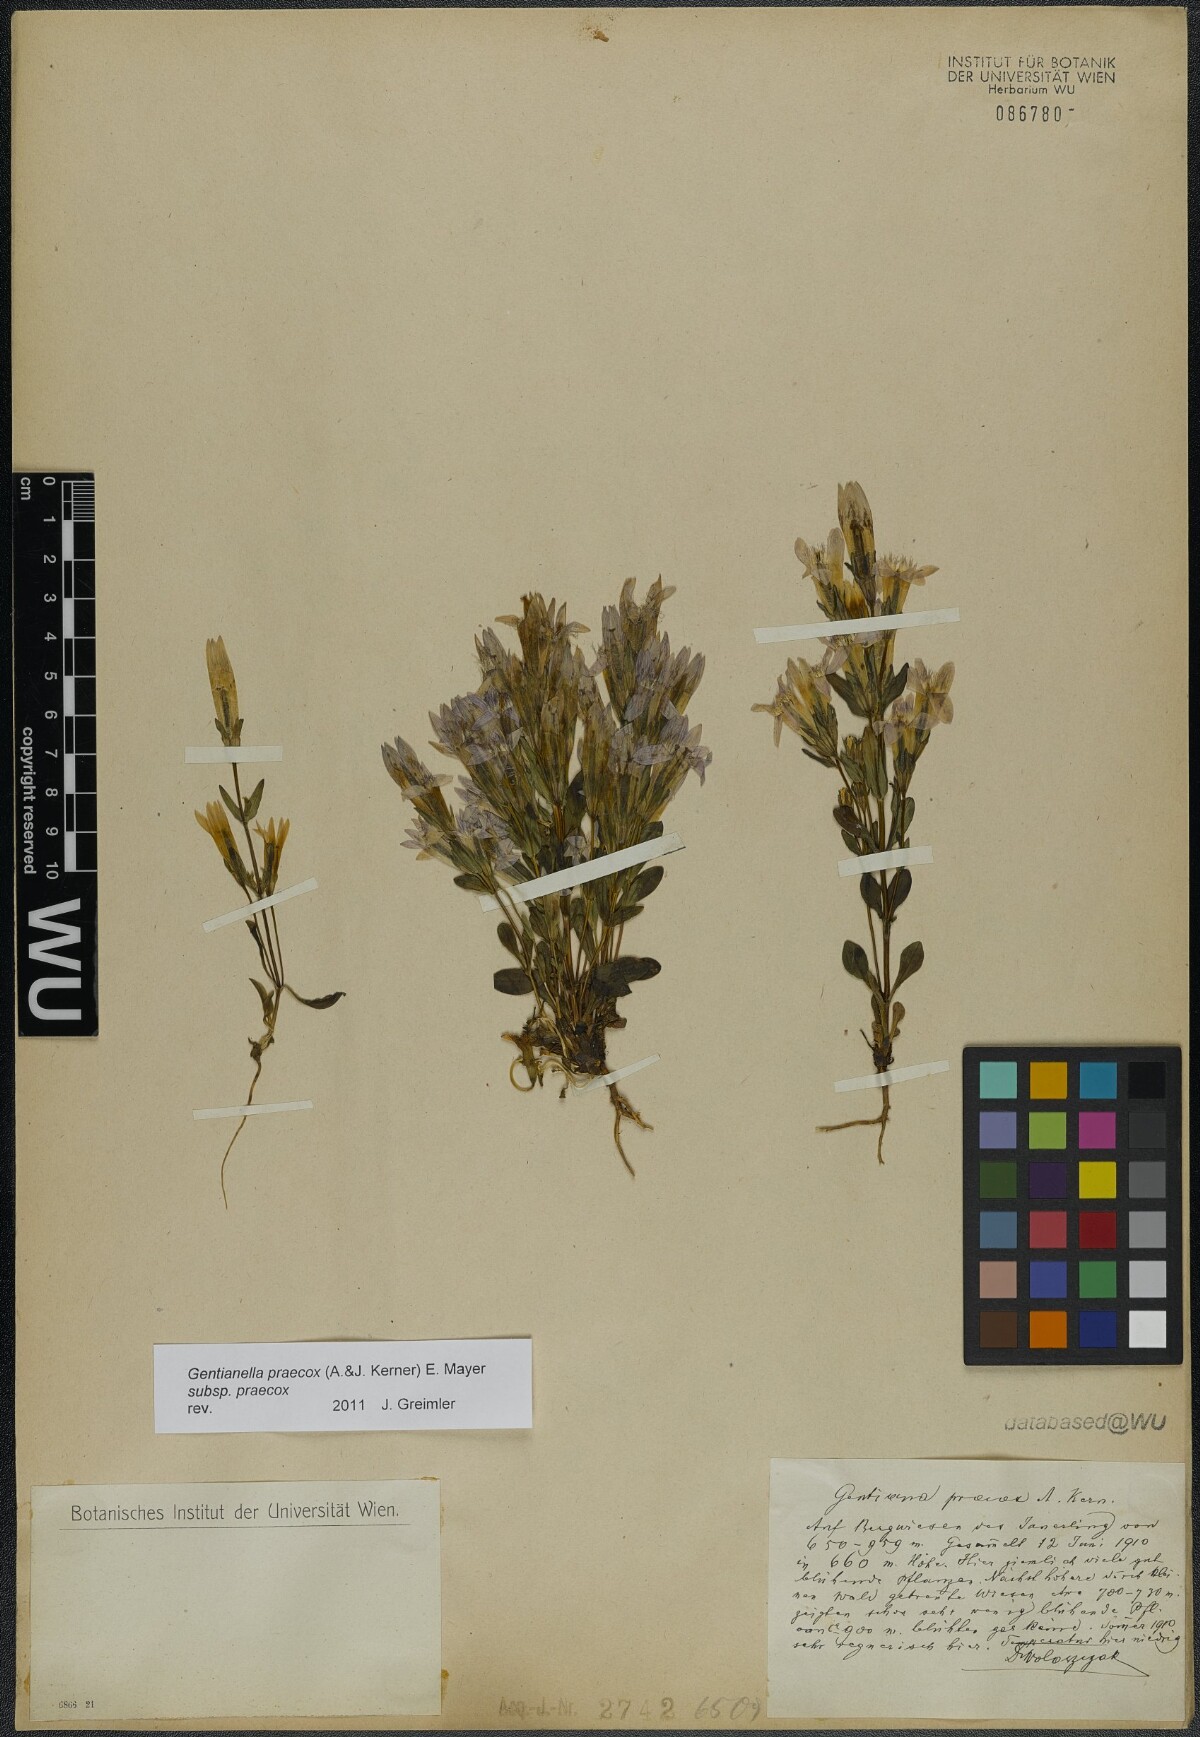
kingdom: Plantae
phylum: Tracheophyta
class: Magnoliopsida
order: Gentianales
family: Gentianaceae
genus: Gentianella
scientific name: Gentianella praecox
